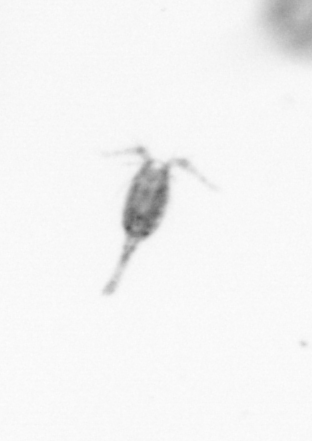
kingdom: Animalia
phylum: Arthropoda
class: Copepoda
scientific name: Copepoda
